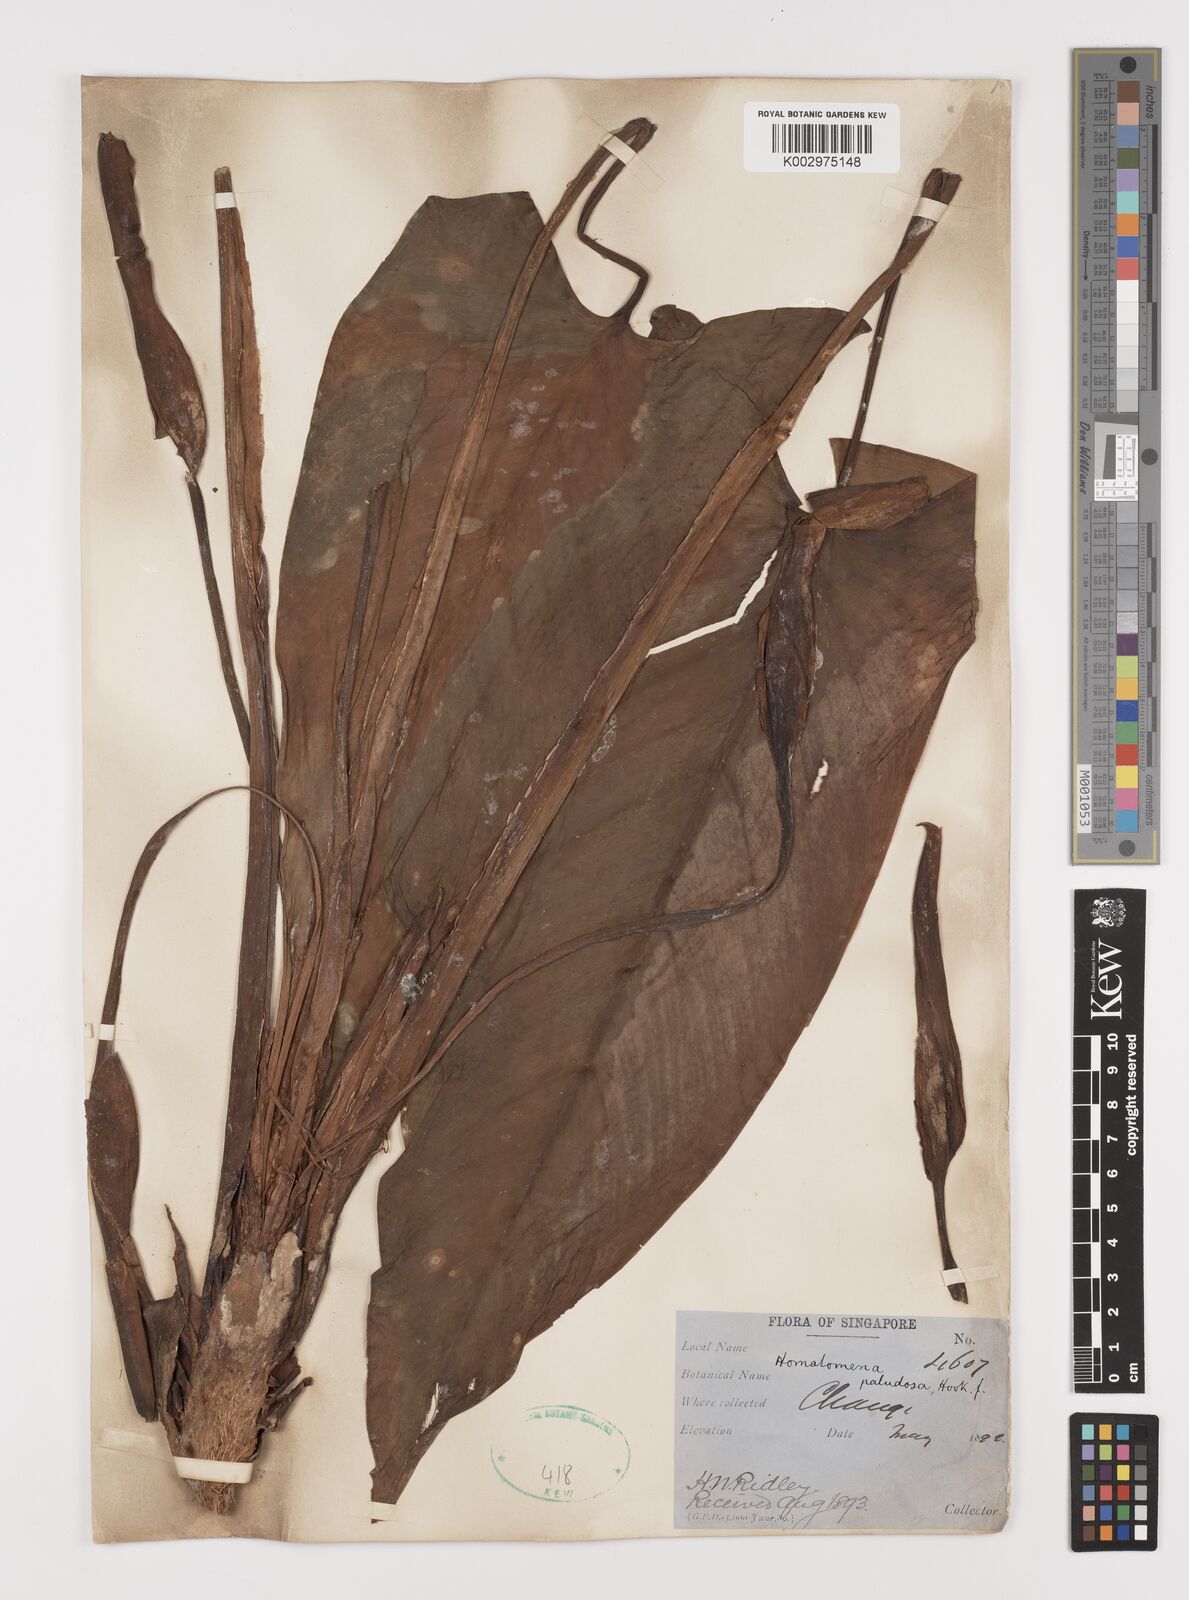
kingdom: Plantae
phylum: Tracheophyta
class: Liliopsida
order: Alismatales
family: Araceae
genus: Homalomena
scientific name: Homalomena rostrata
